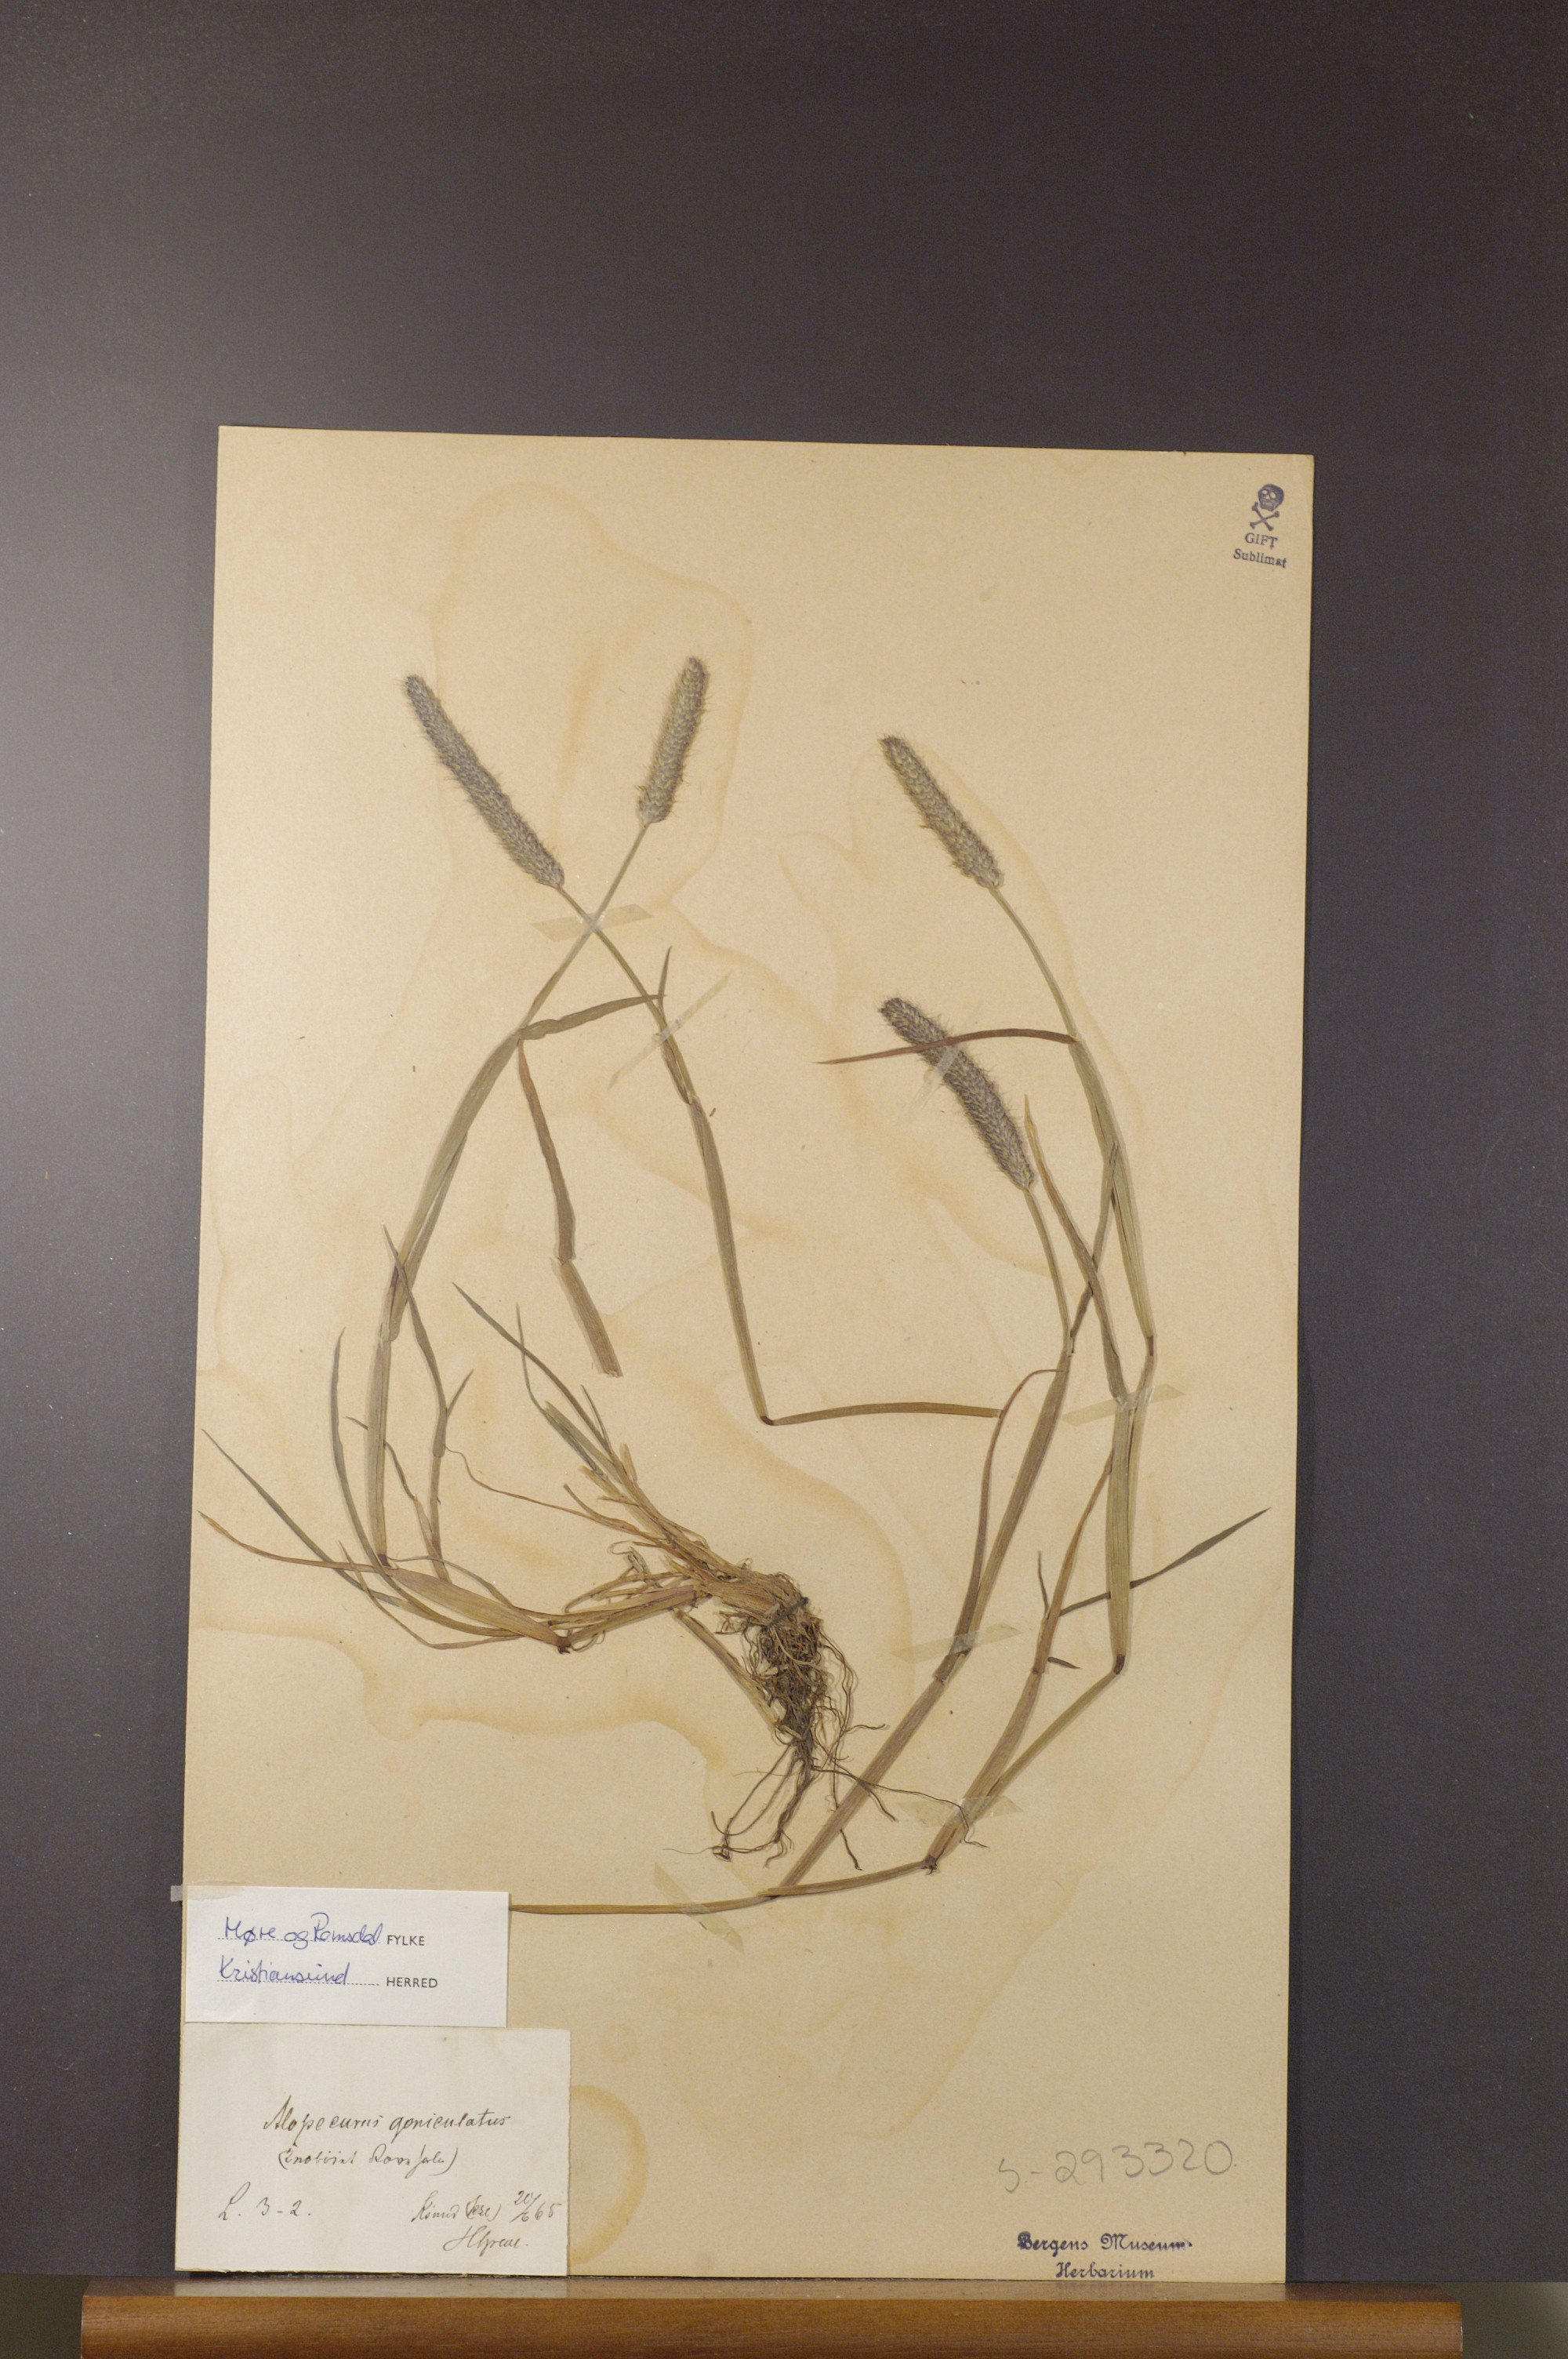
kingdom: Plantae
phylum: Tracheophyta
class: Liliopsida
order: Poales
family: Poaceae
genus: Alopecurus
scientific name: Alopecurus geniculatus
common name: Water foxtail
